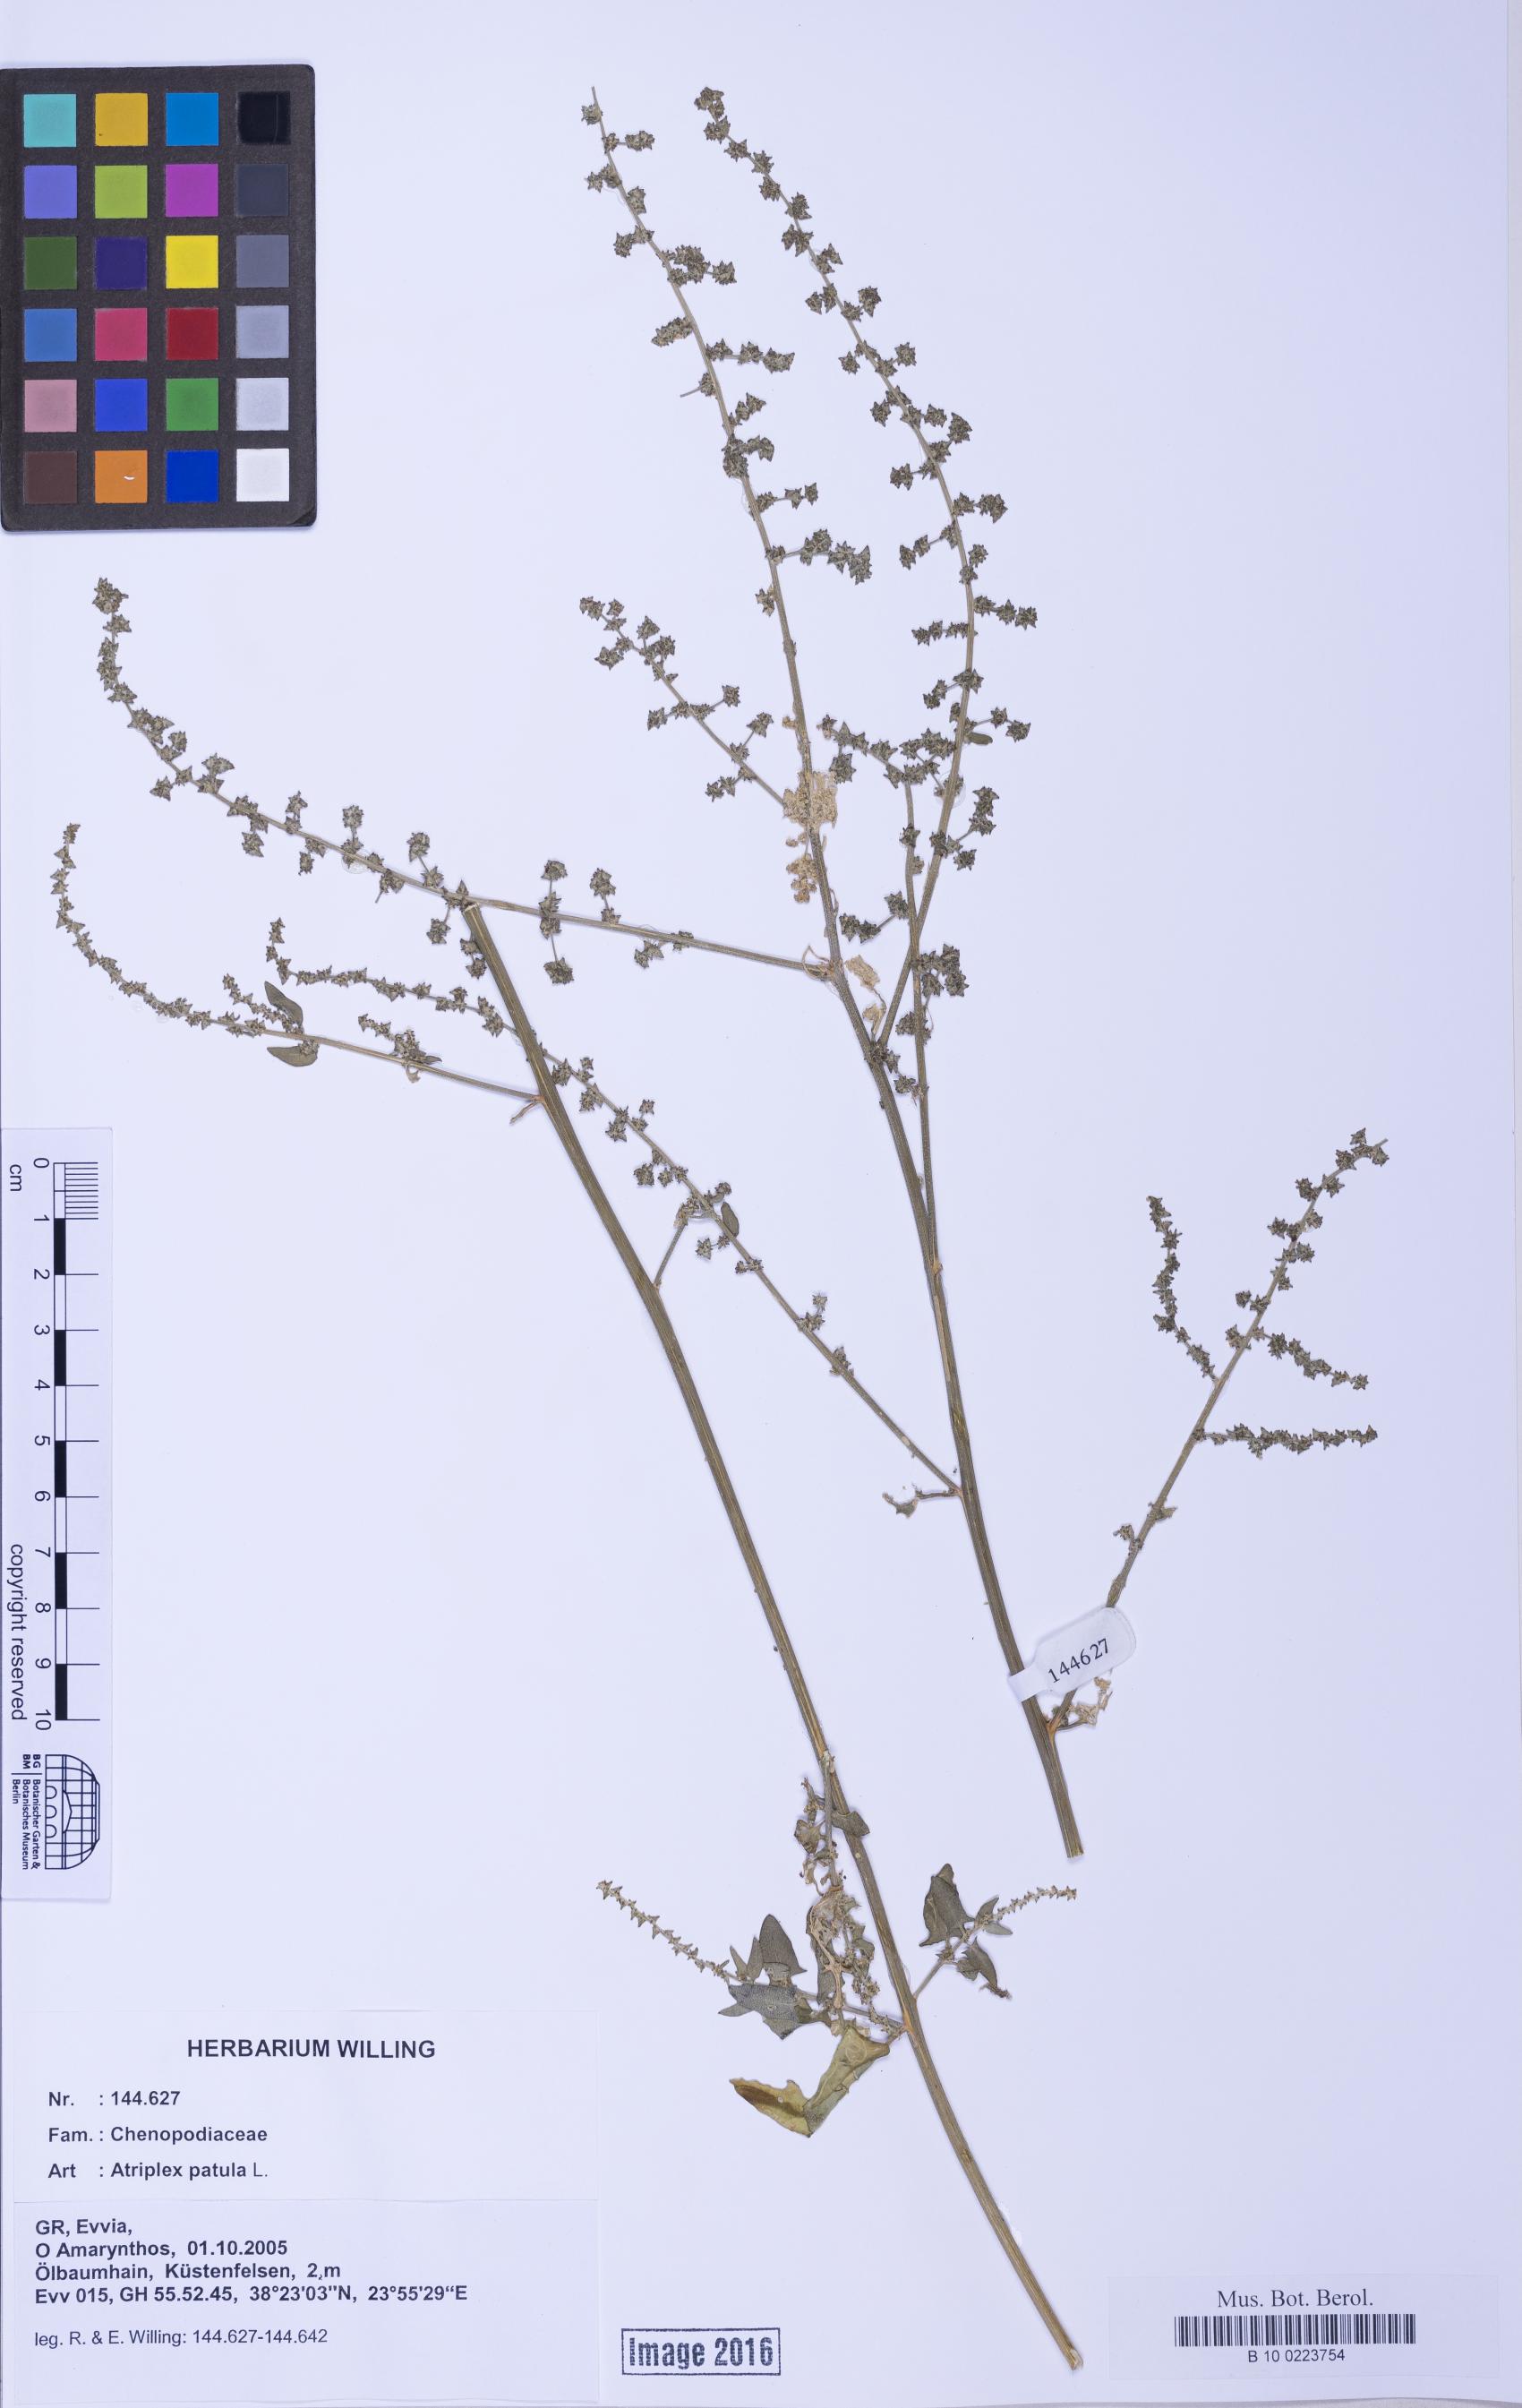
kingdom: Plantae
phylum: Tracheophyta
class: Magnoliopsida
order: Caryophyllales
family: Amaranthaceae
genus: Atriplex
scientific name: Atriplex prostrata
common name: Spear-leaved orache
